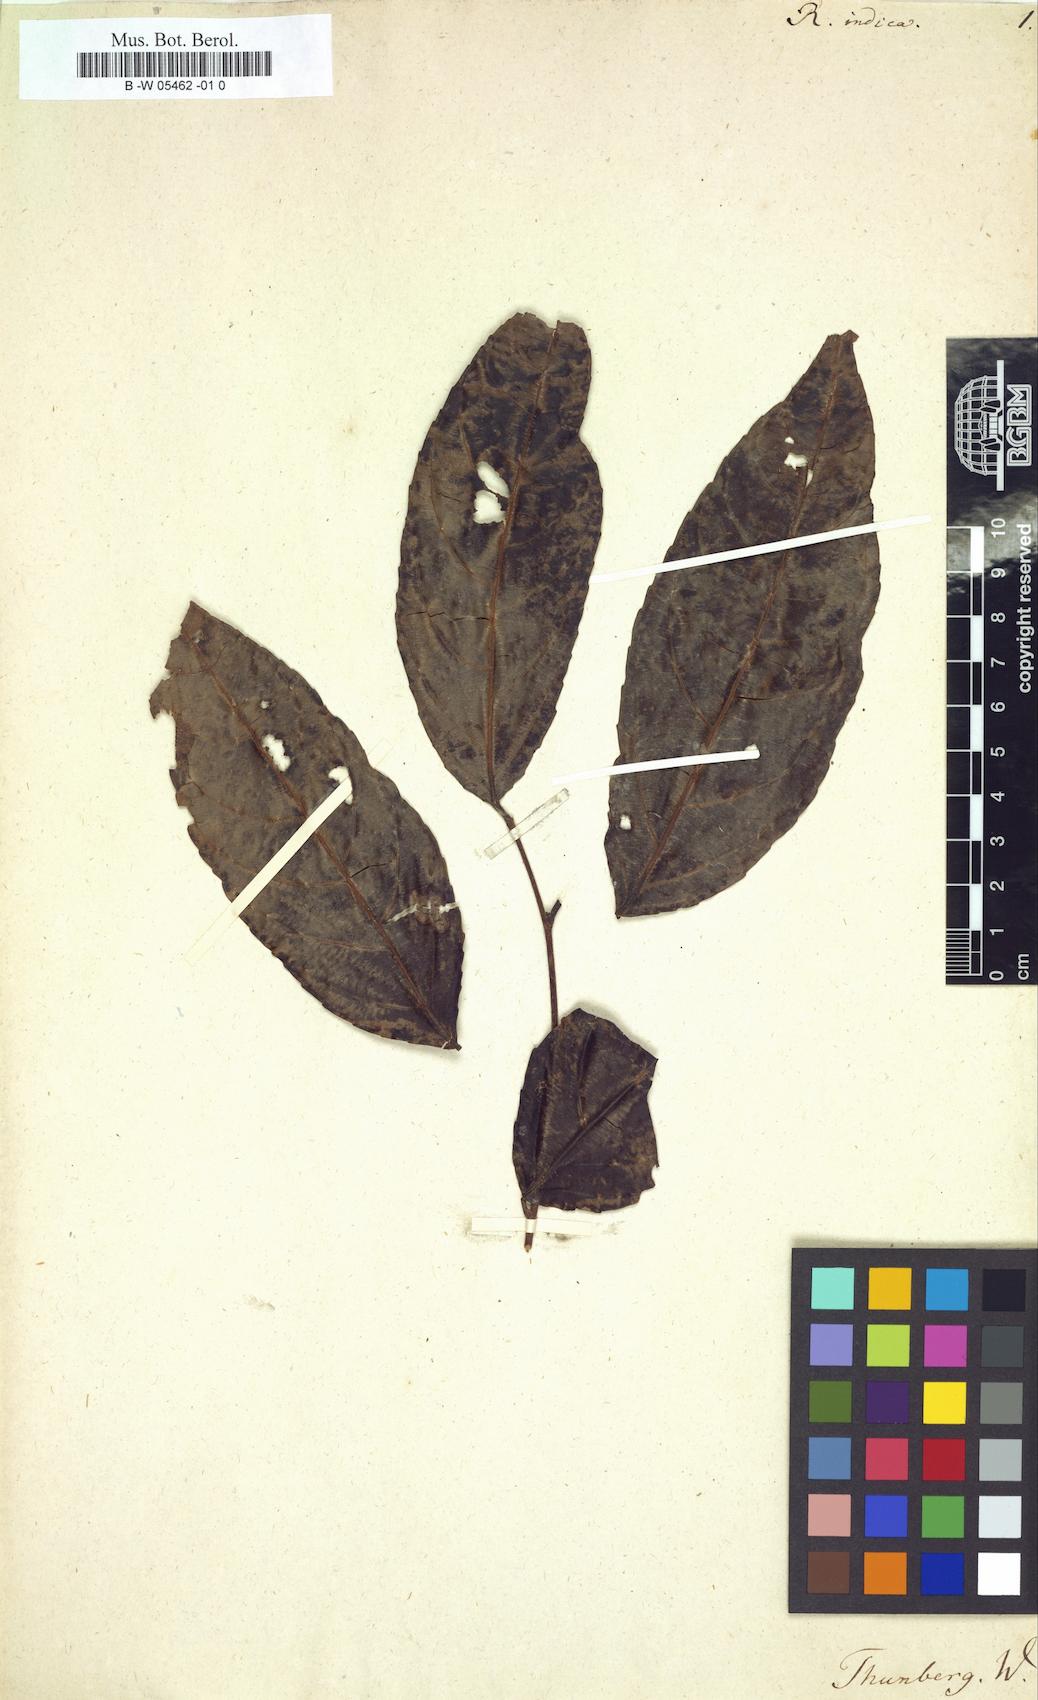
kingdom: Plantae
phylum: Tracheophyta
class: Magnoliopsida
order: Boraginales
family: Ehretiaceae
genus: Rochefortia
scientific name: Rochefortia
